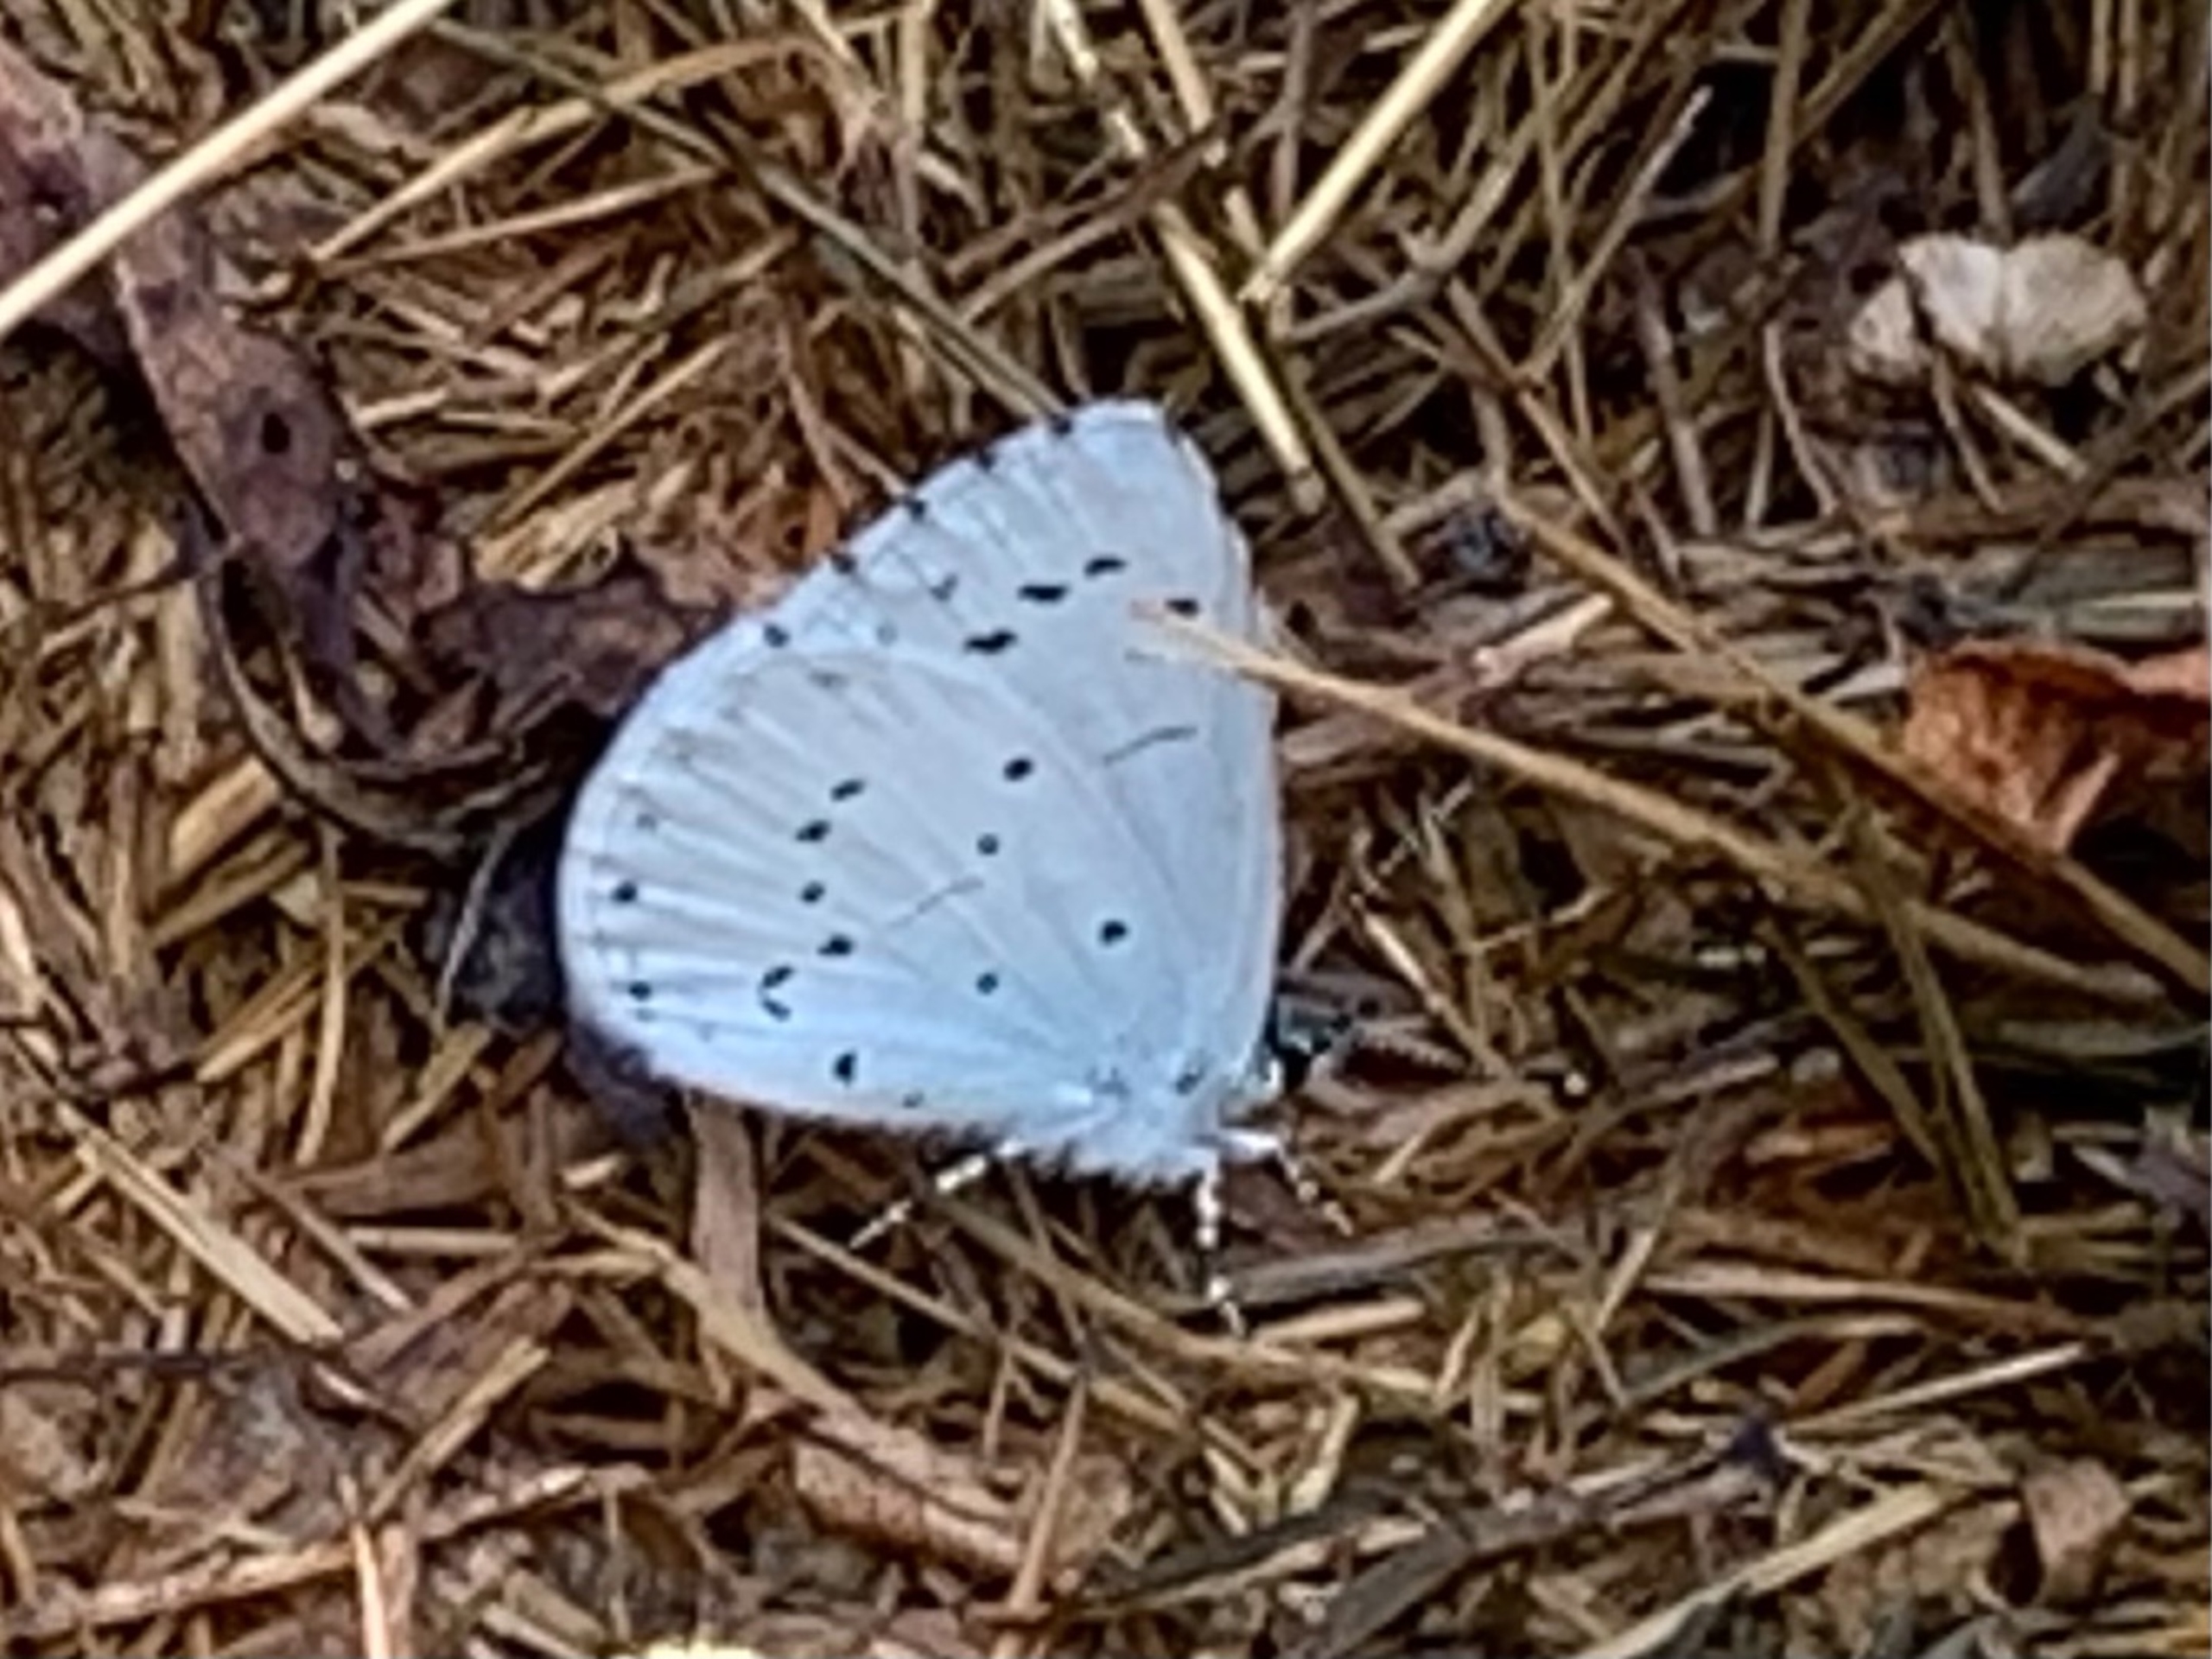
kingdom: Animalia
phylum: Arthropoda
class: Insecta
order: Lepidoptera
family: Lycaenidae
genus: Celastrina
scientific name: Celastrina argiolus
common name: Skovblåfugl
